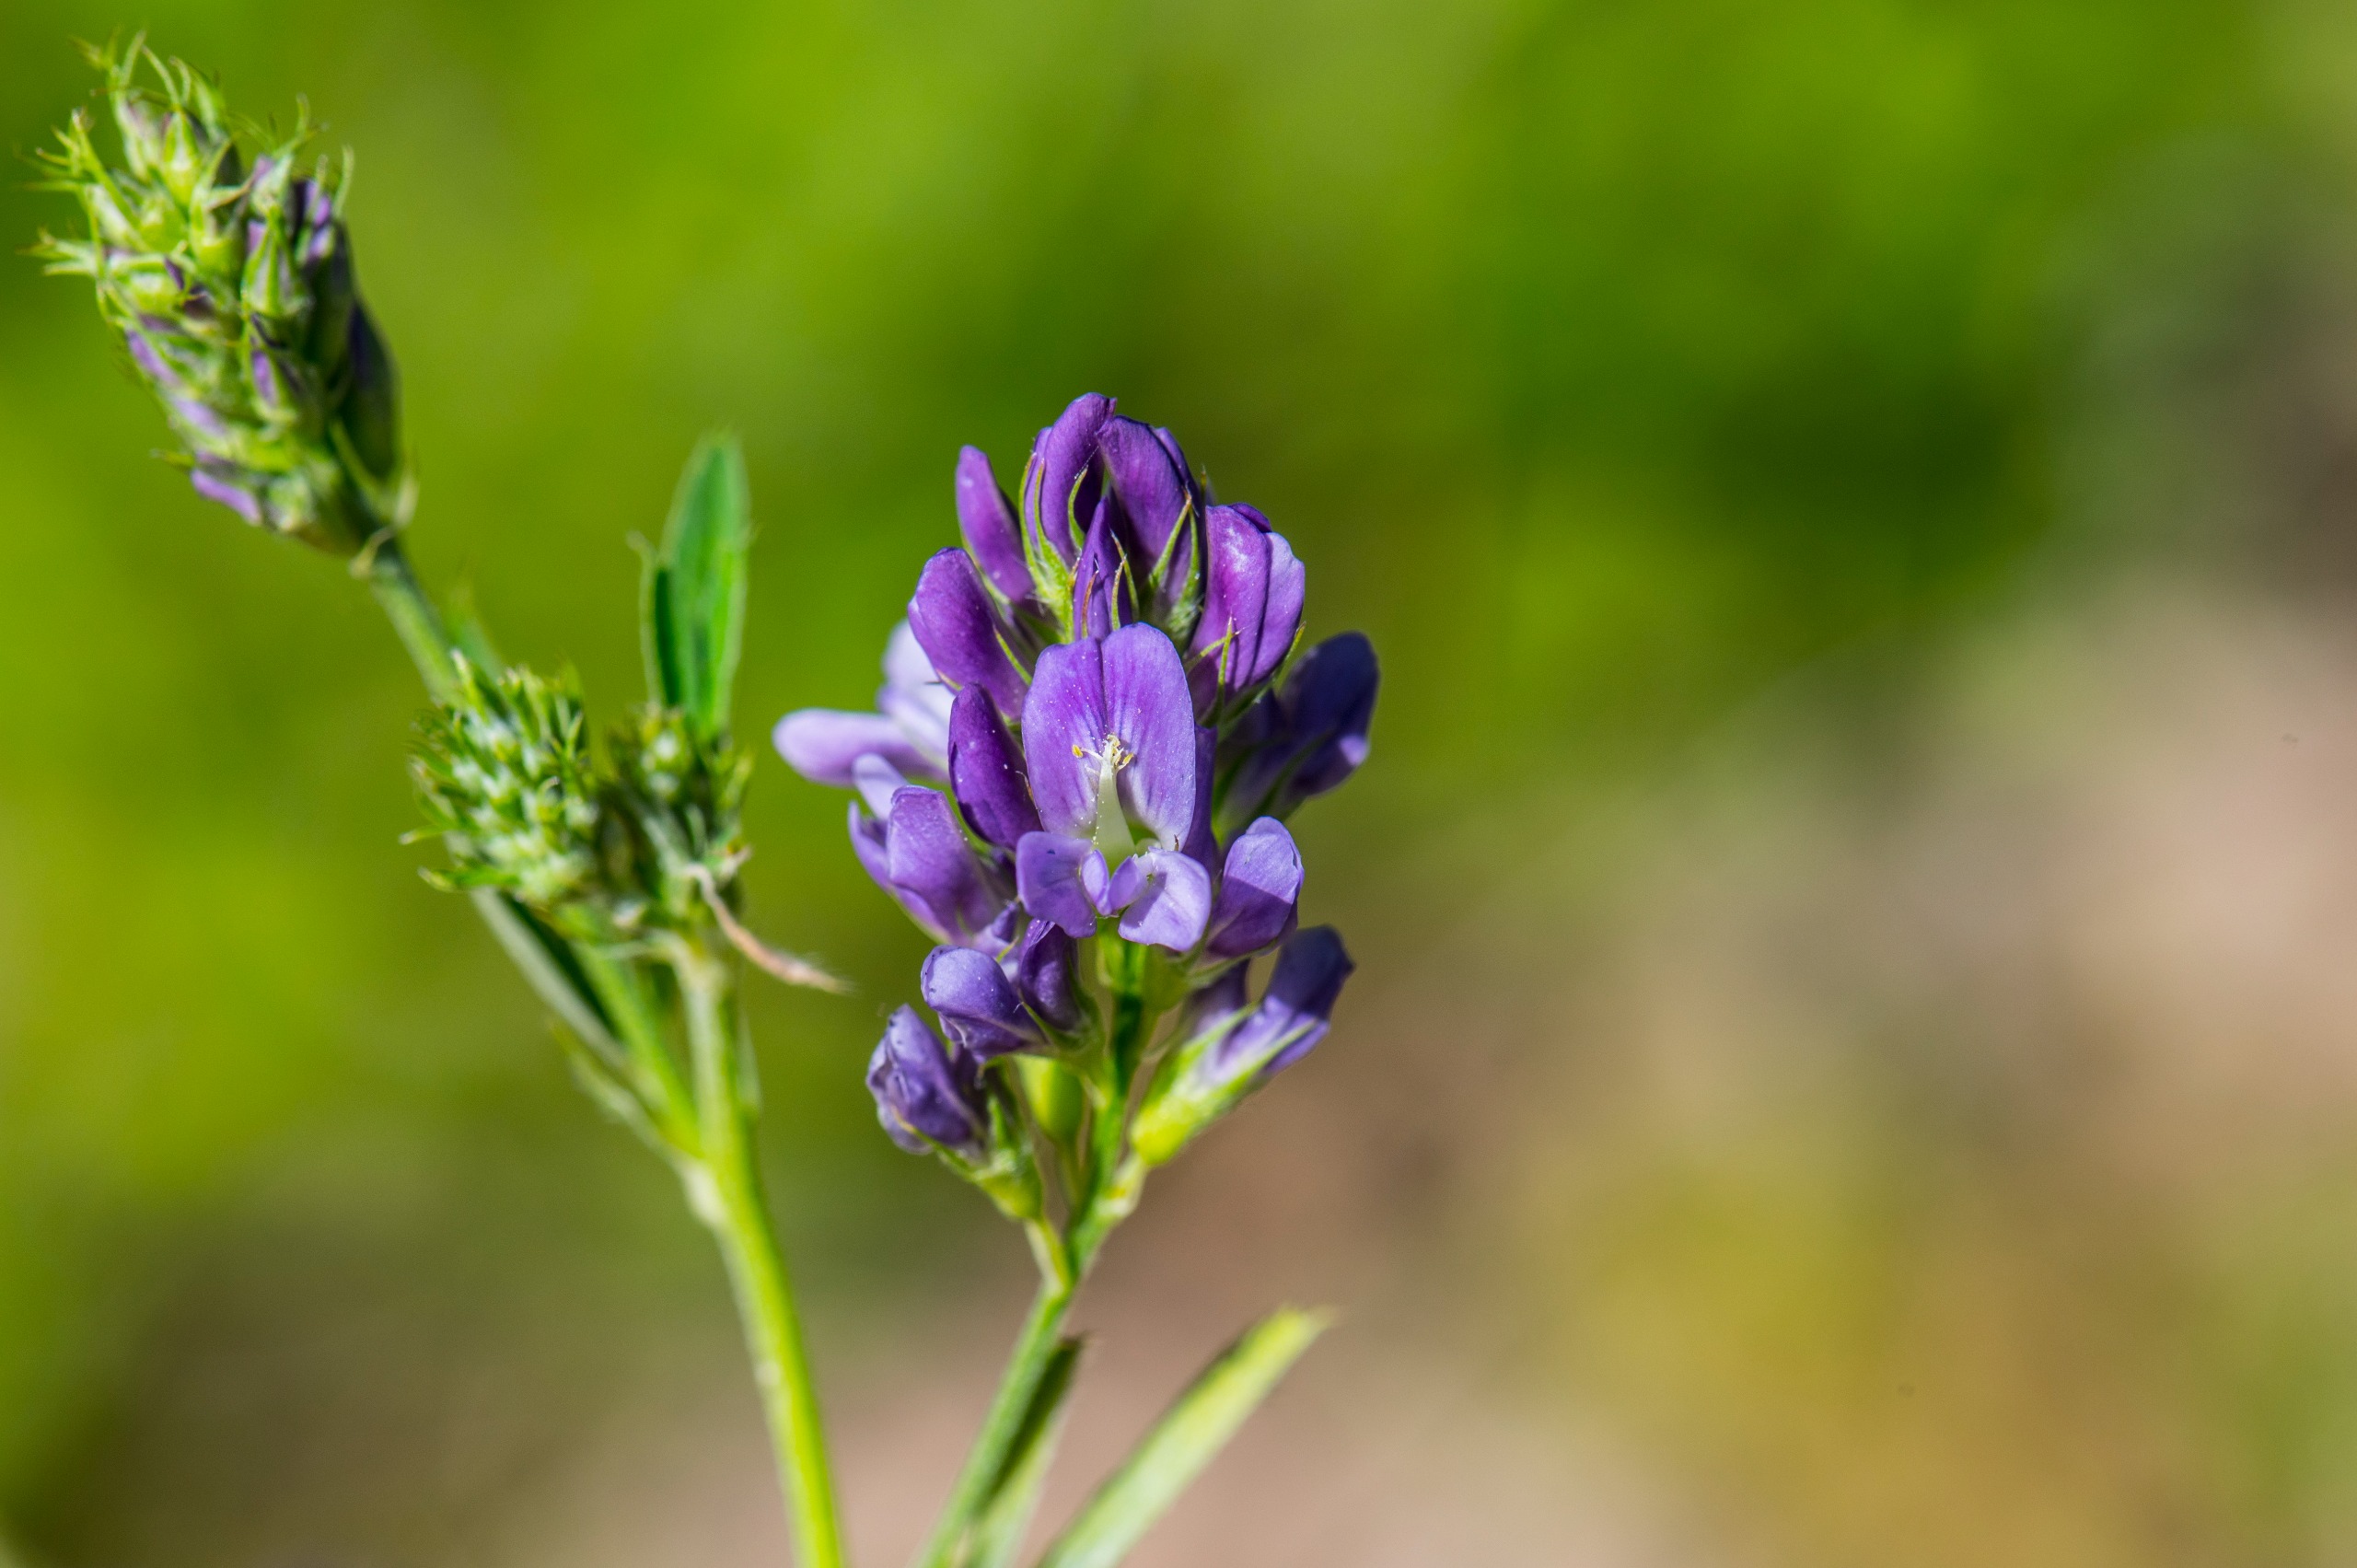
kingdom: Plantae
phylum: Tracheophyta
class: Magnoliopsida
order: Fabales
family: Fabaceae
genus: Medicago
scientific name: Medicago sativa
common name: Lucerne
